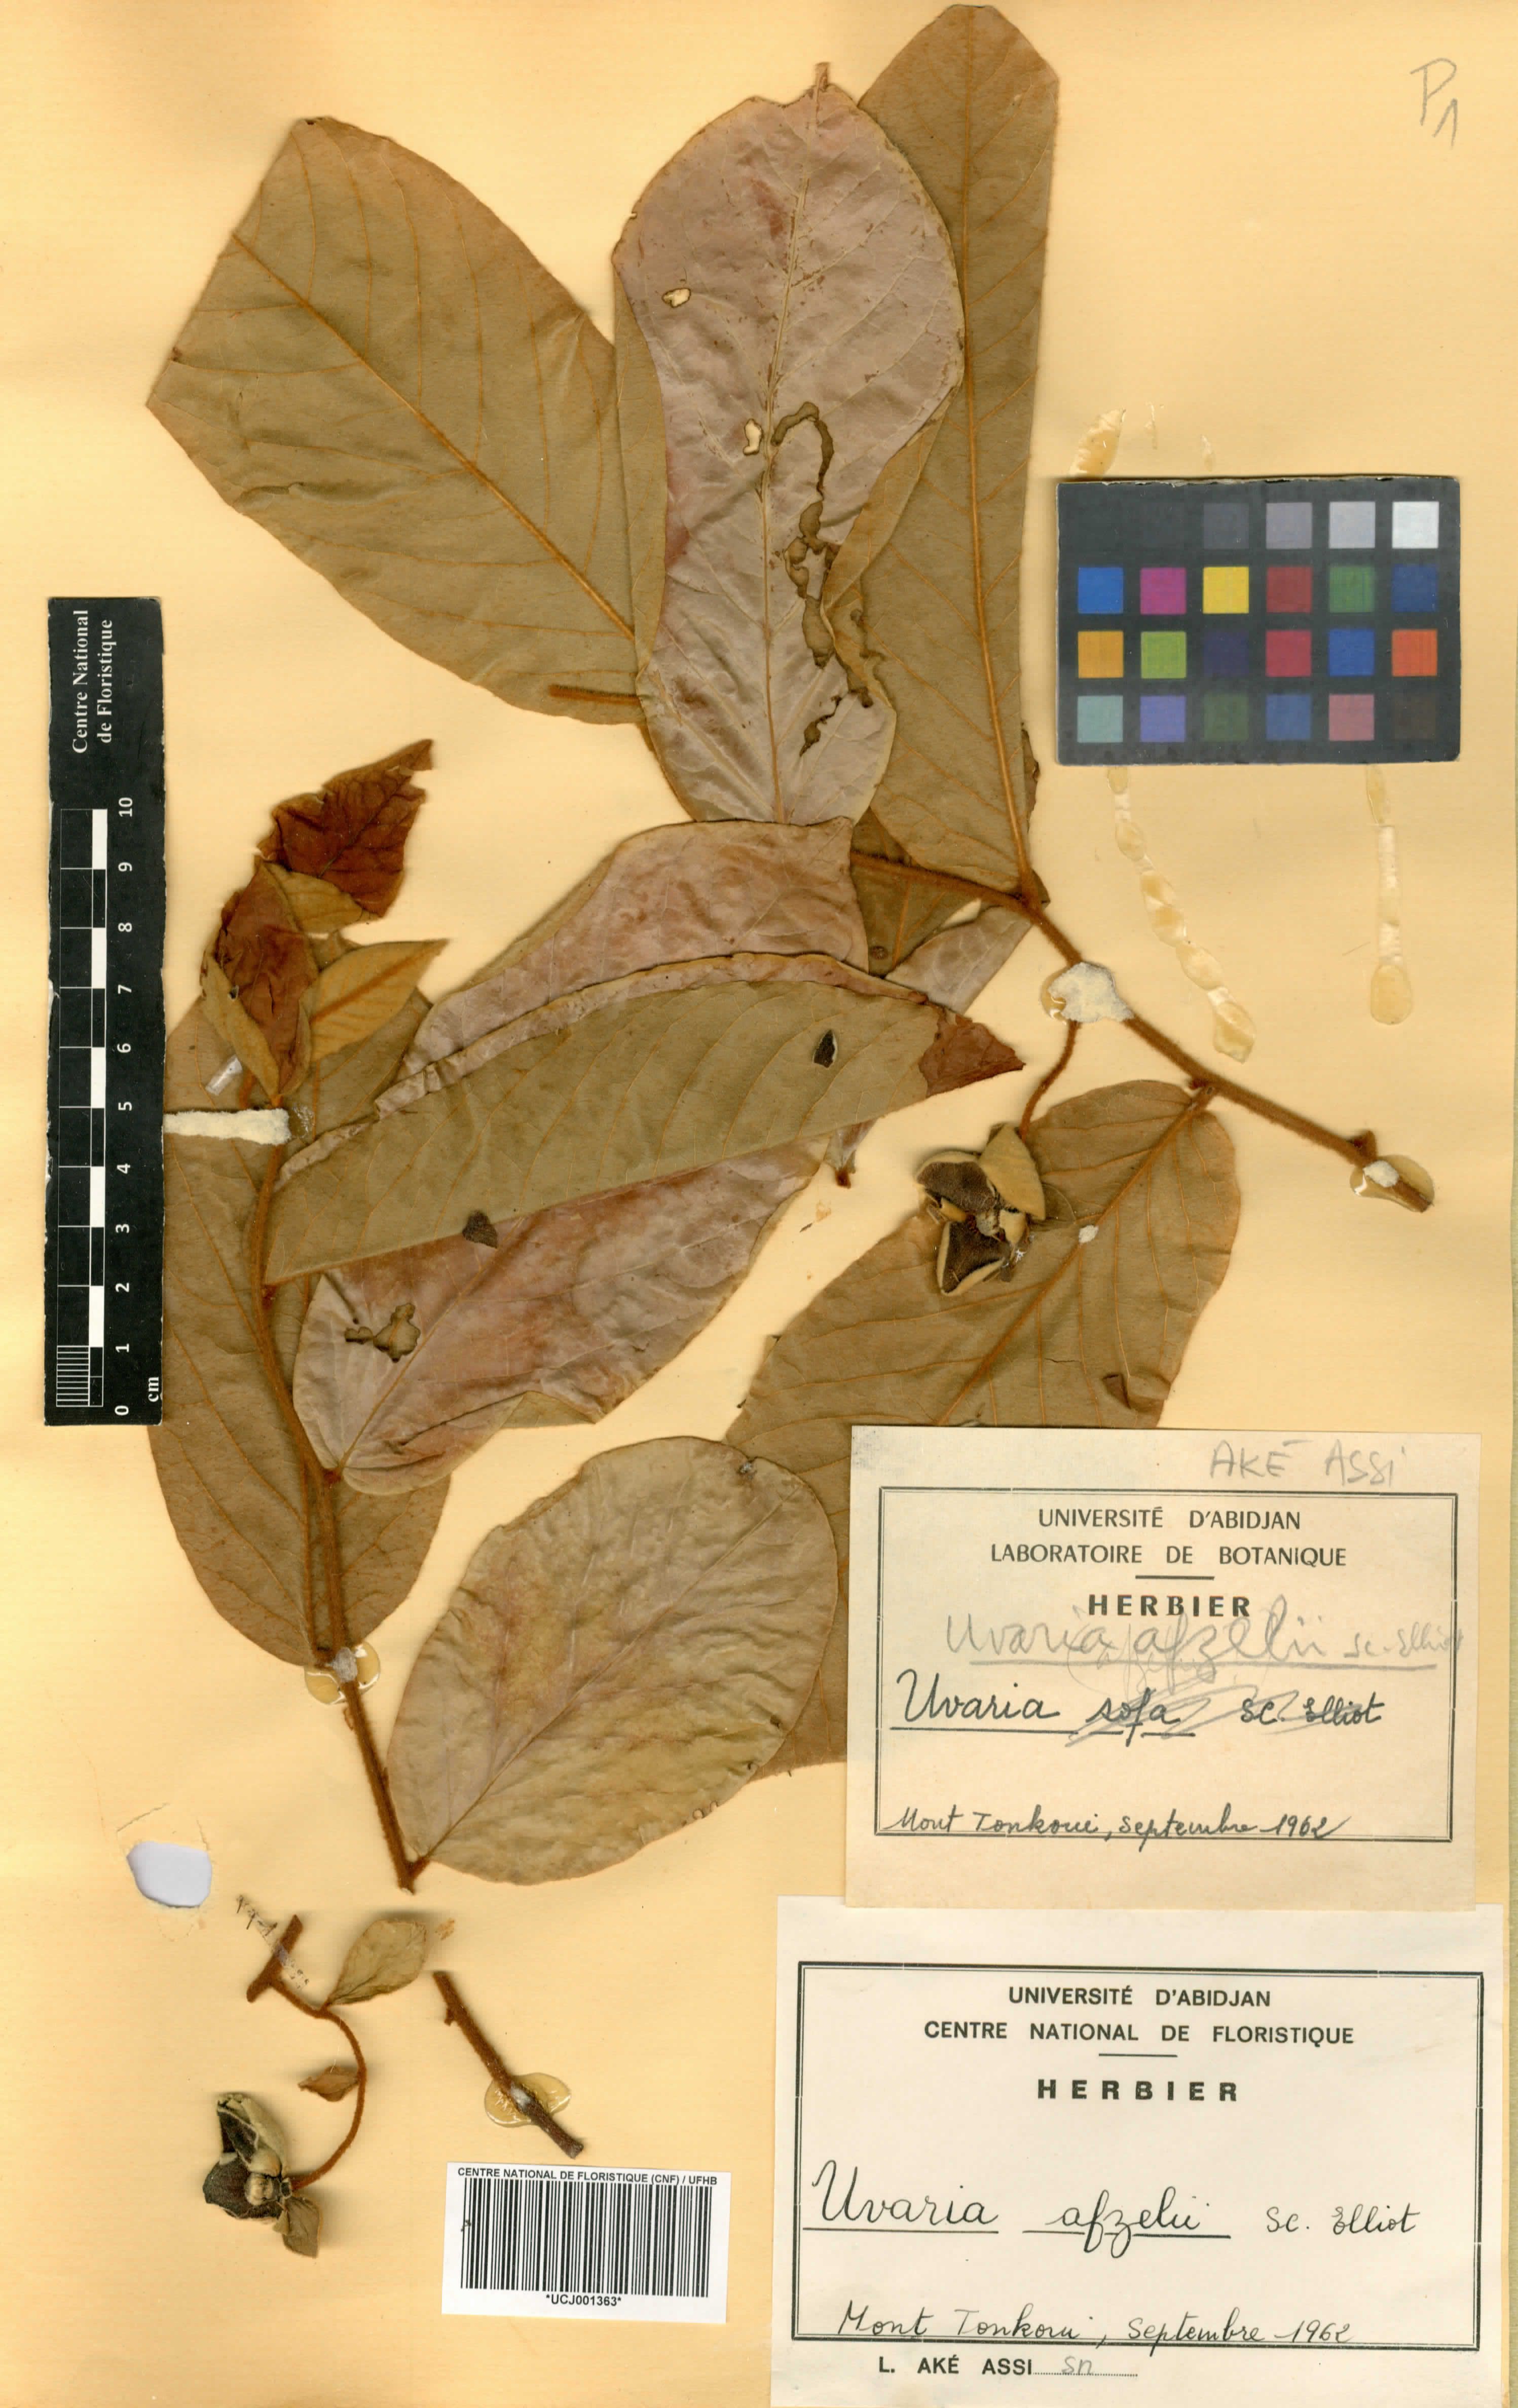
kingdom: Plantae
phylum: Tracheophyta
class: Magnoliopsida
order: Magnoliales
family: Annonaceae
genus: Uvaria
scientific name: Uvaria afzelii
